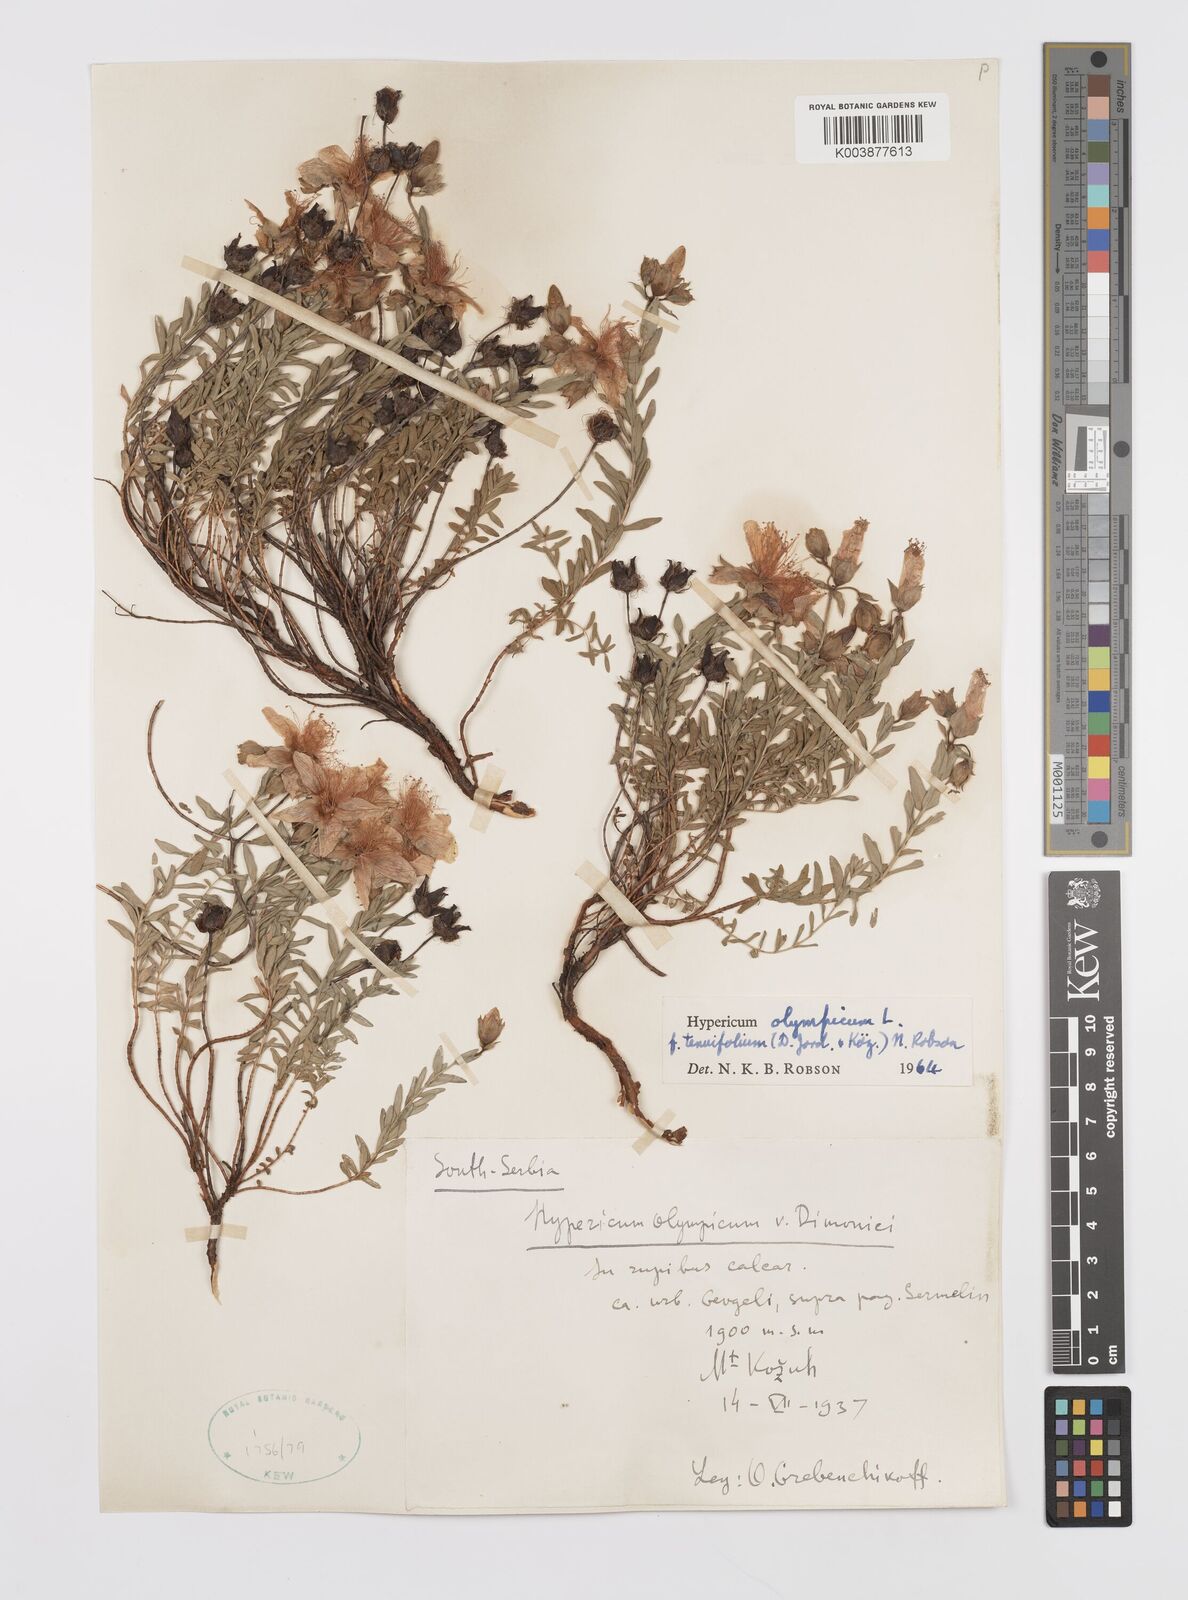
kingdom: Plantae
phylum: Tracheophyta
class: Magnoliopsida
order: Malpighiales
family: Hypericaceae
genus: Hypericum
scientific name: Hypericum olympicum
